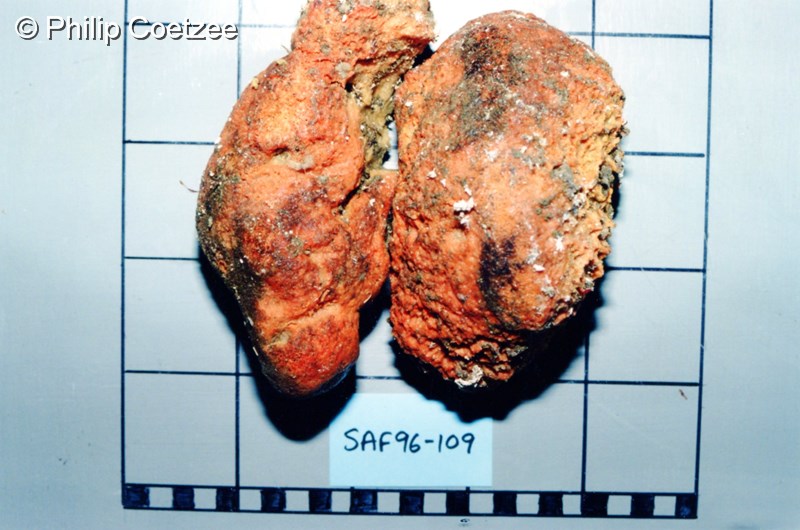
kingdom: Animalia
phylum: Porifera
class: Demospongiae
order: Axinellida
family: Axinellidae
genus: Axinella
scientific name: Axinella
